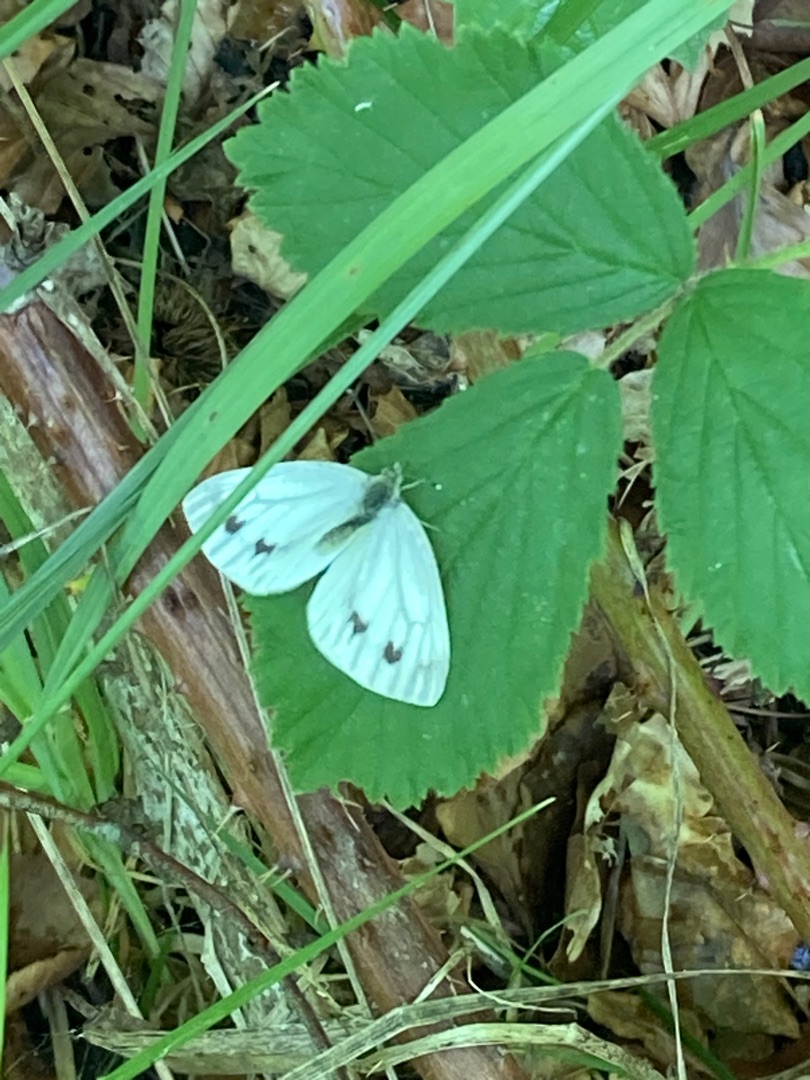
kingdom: Animalia
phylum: Arthropoda
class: Insecta
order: Lepidoptera
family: Pieridae
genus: Pieris
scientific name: Pieris napi
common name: Grønåret kålsommerfugl
